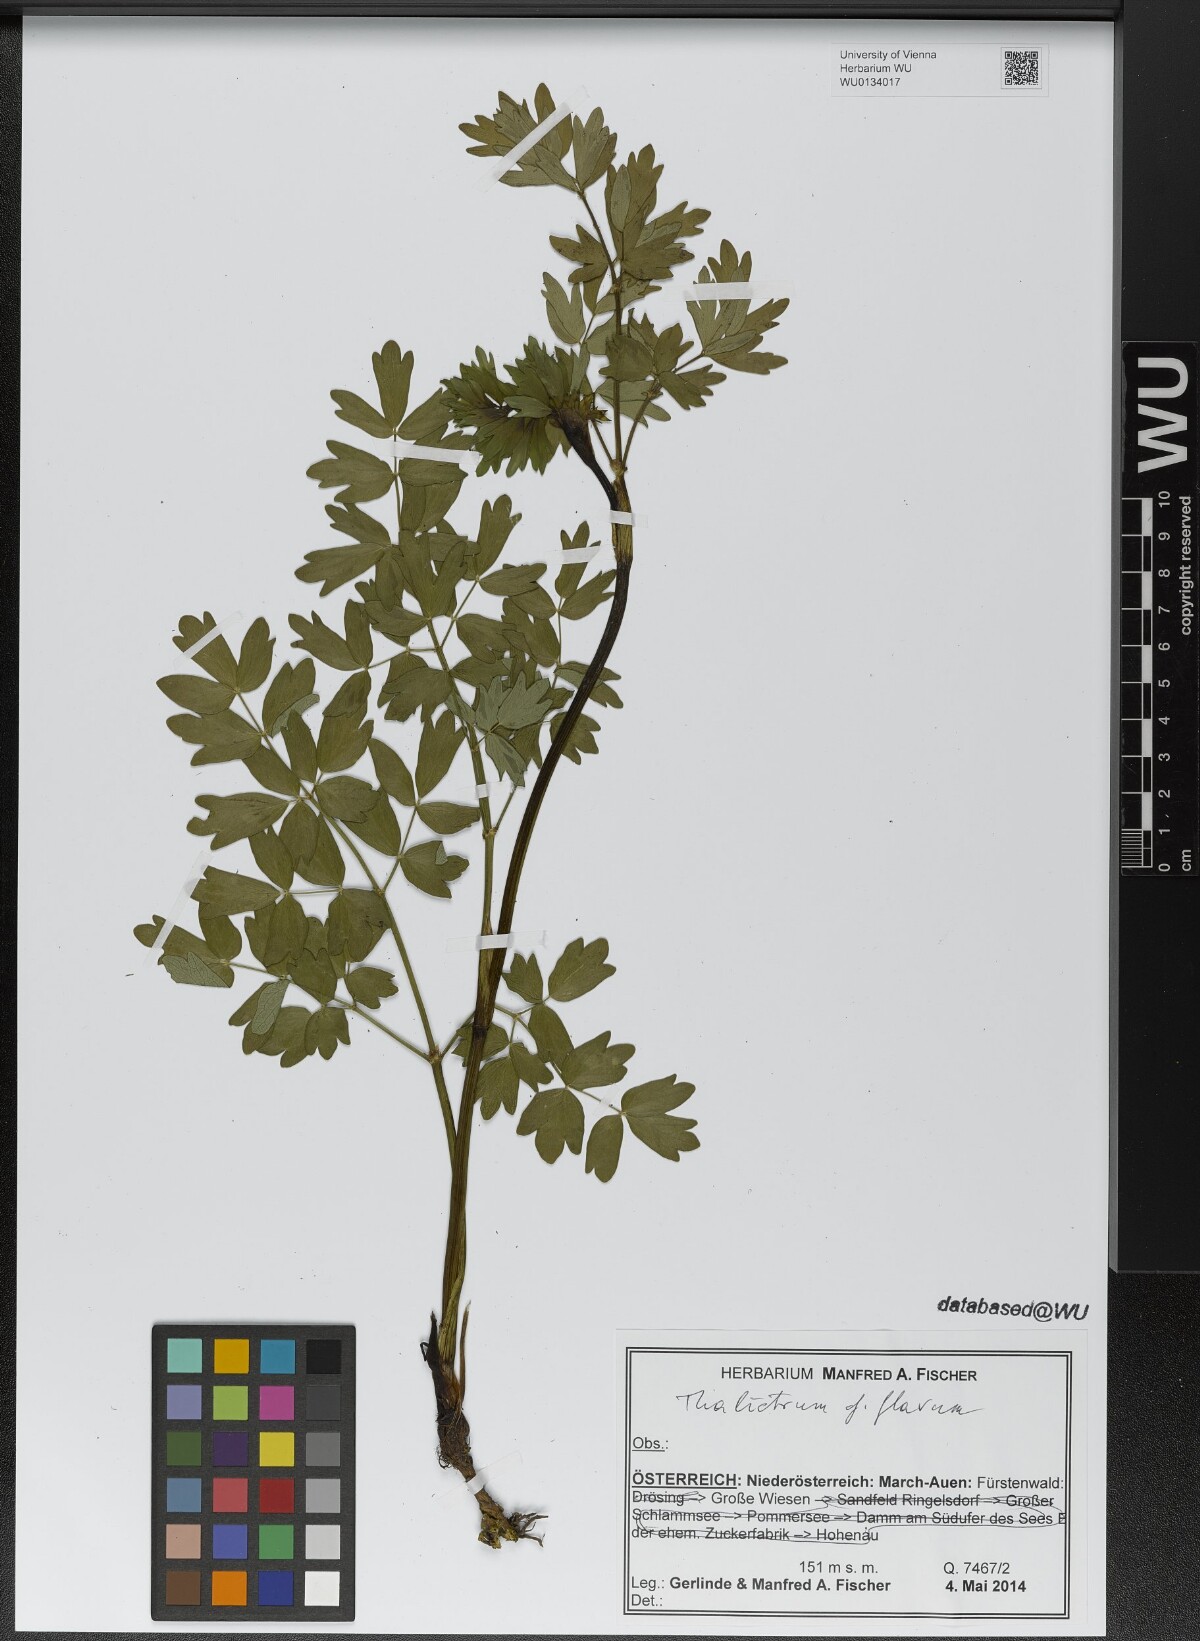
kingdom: Plantae
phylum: Tracheophyta
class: Magnoliopsida
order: Ranunculales
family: Ranunculaceae
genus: Thalictrum
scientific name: Thalictrum flavum
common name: Common meadow-rue
